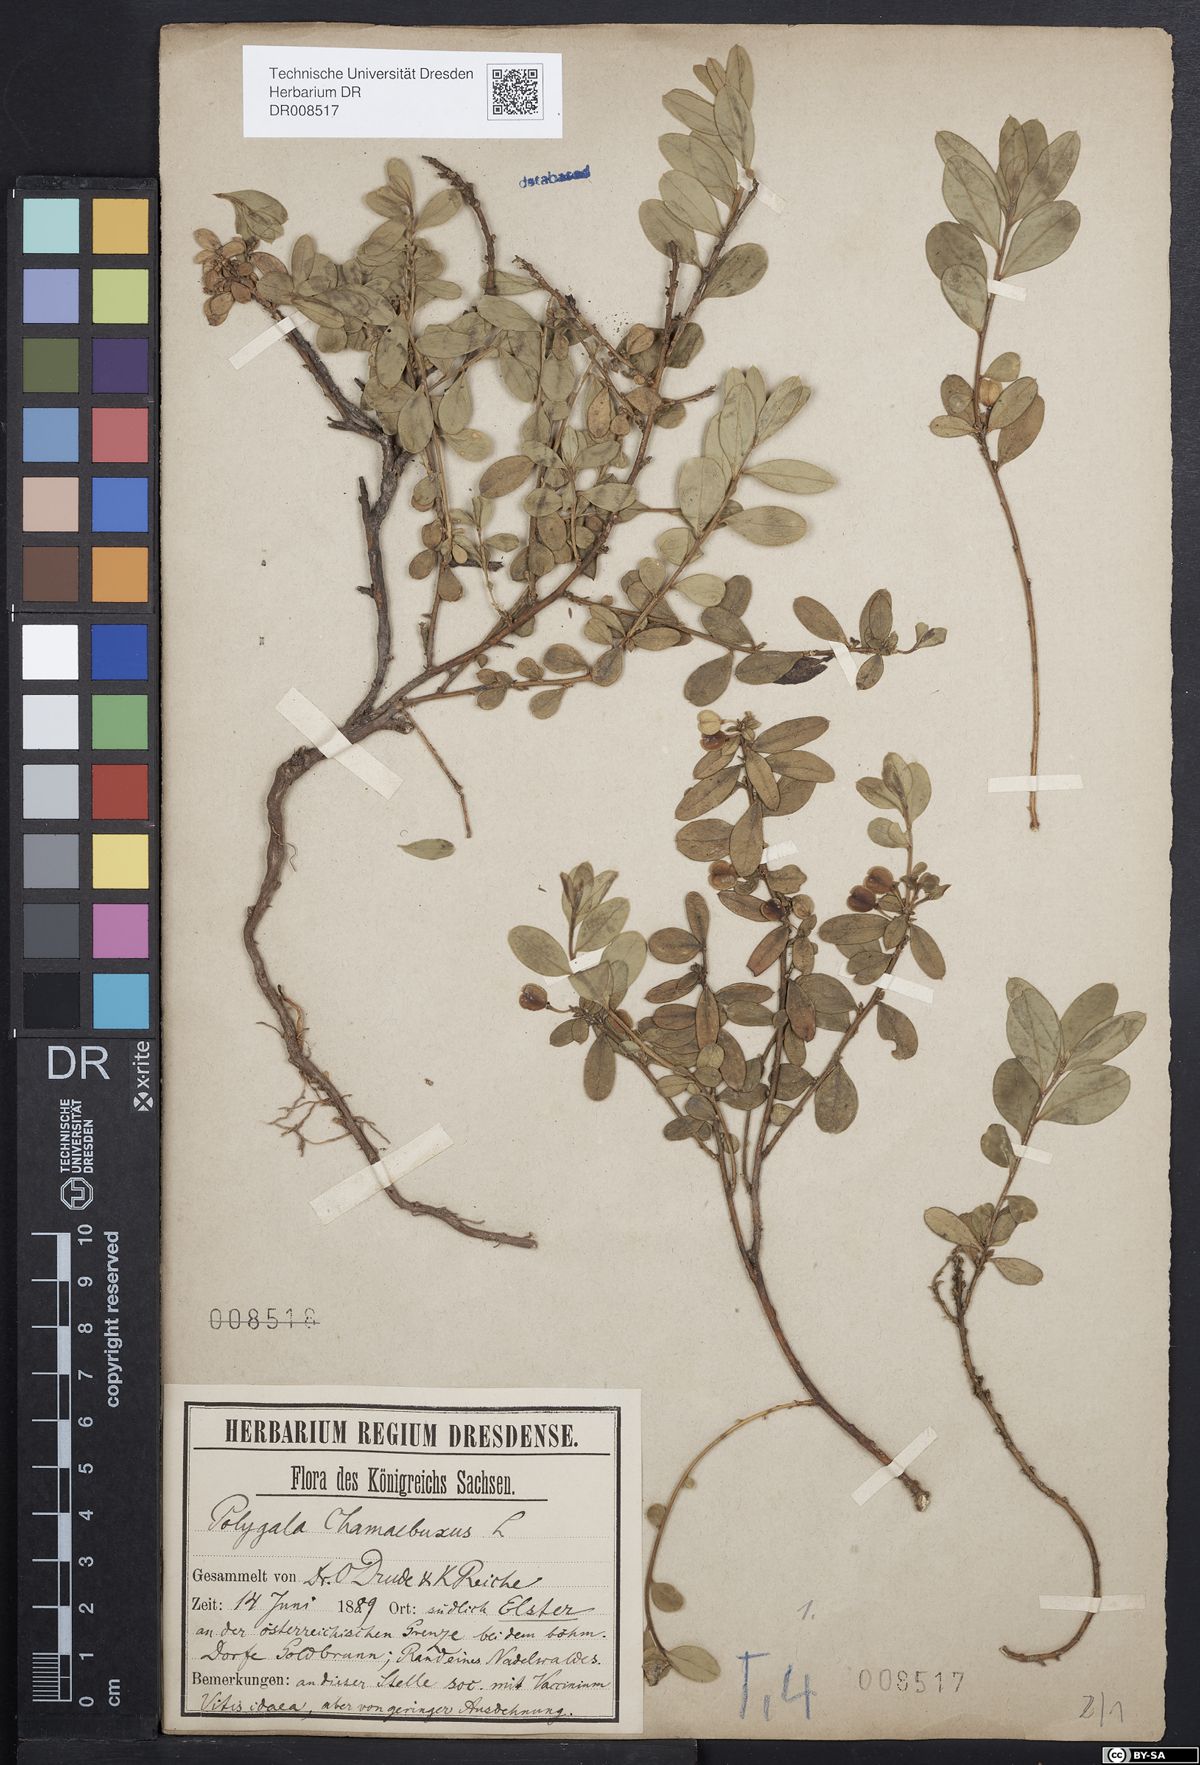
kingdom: Plantae
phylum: Tracheophyta
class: Magnoliopsida
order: Fabales
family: Polygalaceae
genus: Polygaloides
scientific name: Polygaloides chamaebuxus
